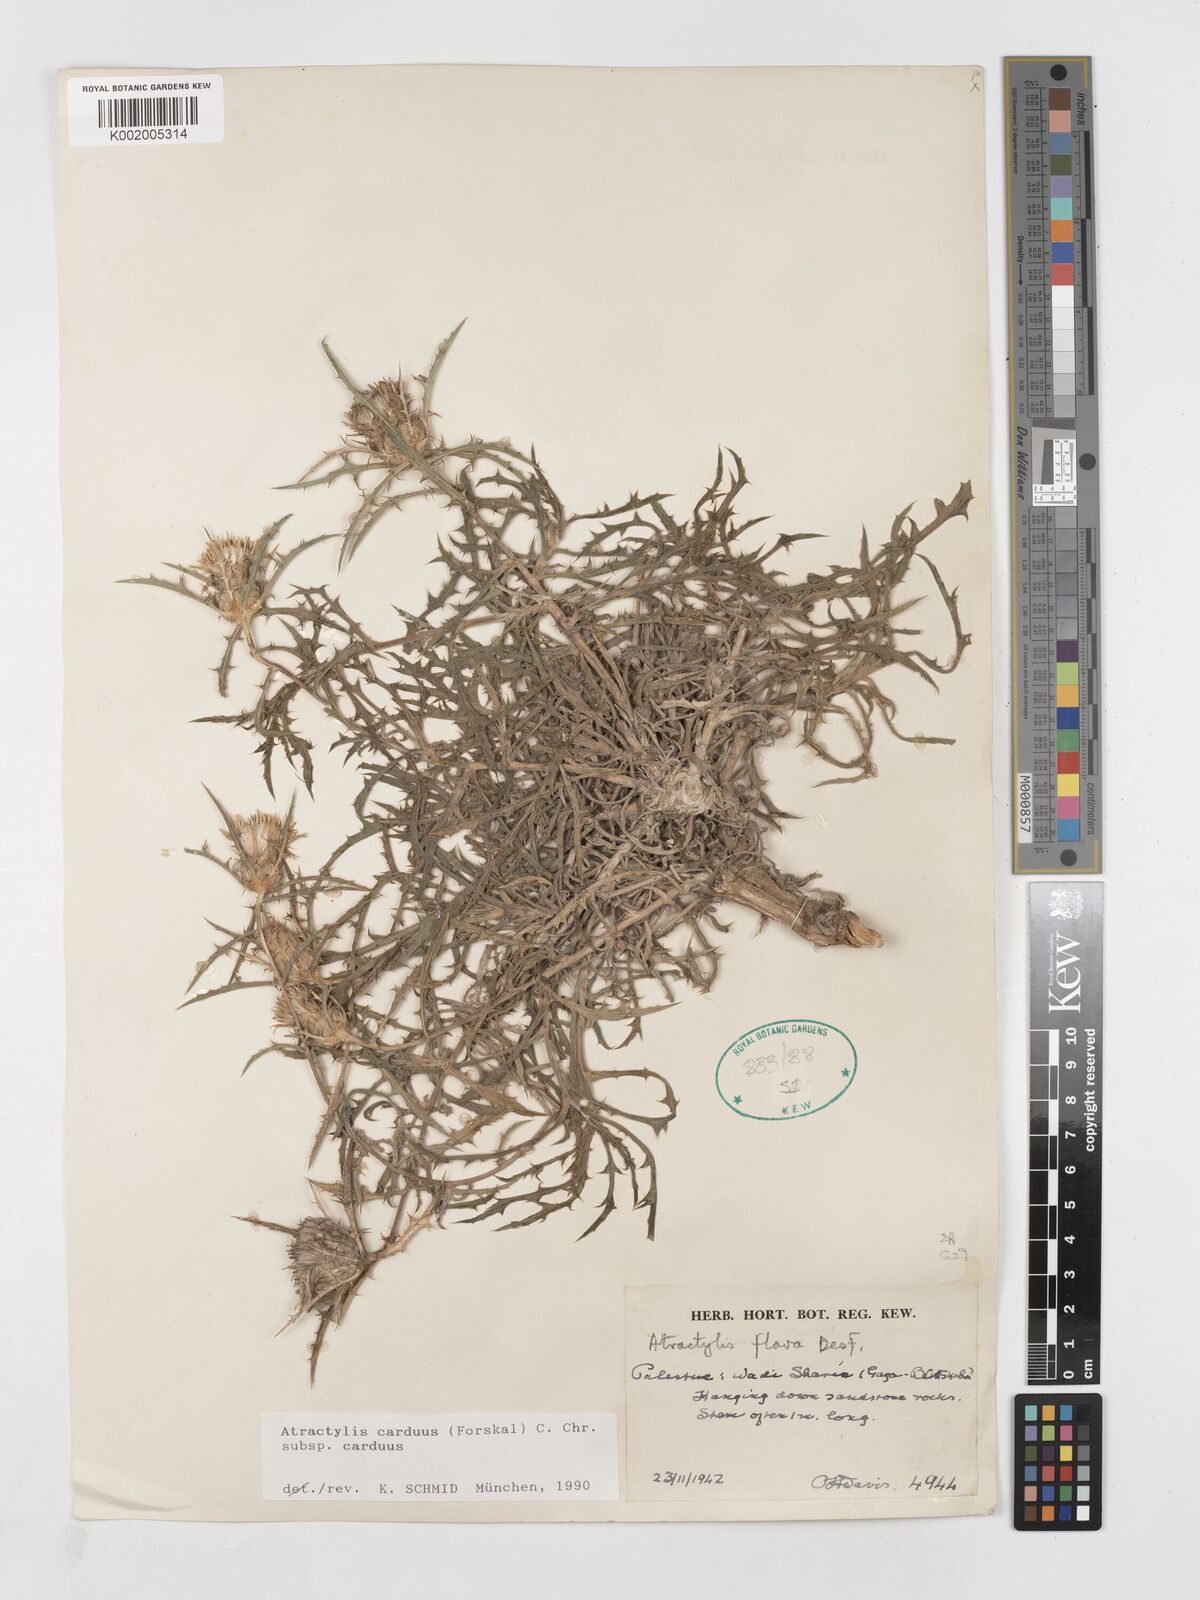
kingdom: Plantae
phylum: Tracheophyta
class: Magnoliopsida
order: Asterales
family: Asteraceae
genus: Atractylis
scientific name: Atractylis carduus
